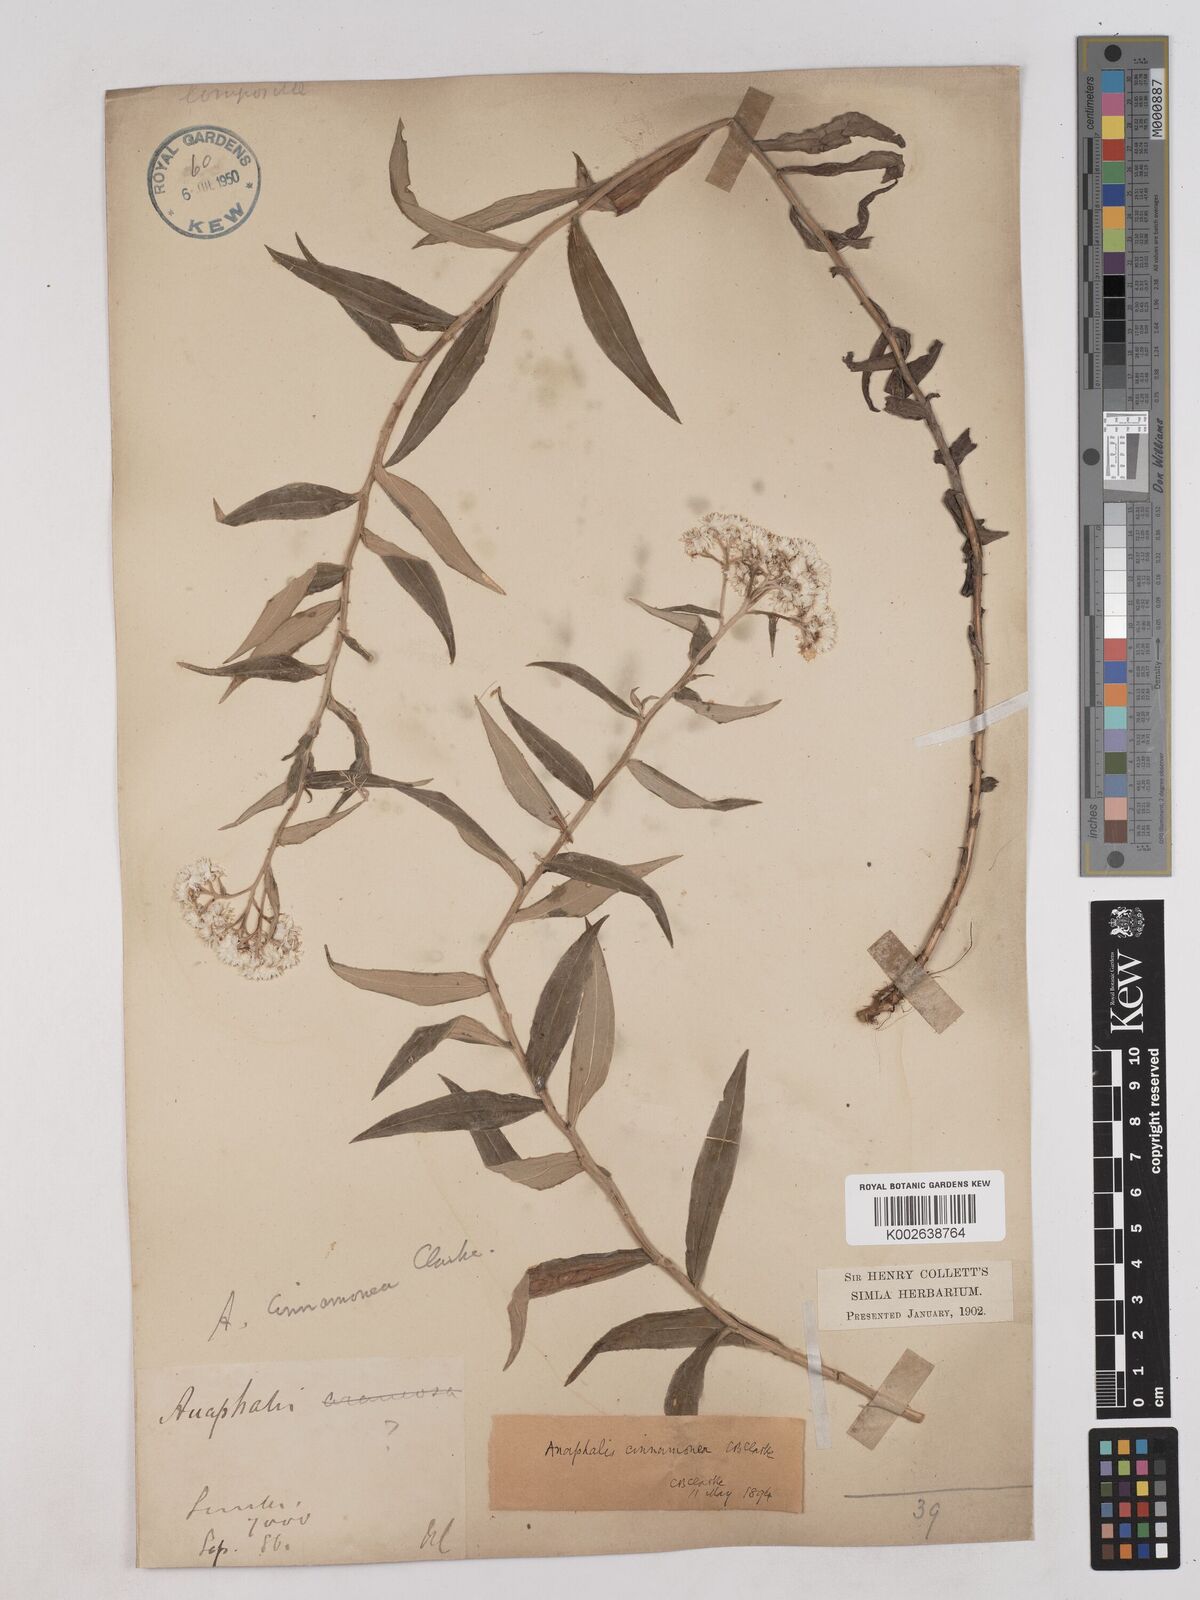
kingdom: Plantae
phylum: Tracheophyta
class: Magnoliopsida
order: Asterales
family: Asteraceae
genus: Anaphalis
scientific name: Anaphalis marcescens
